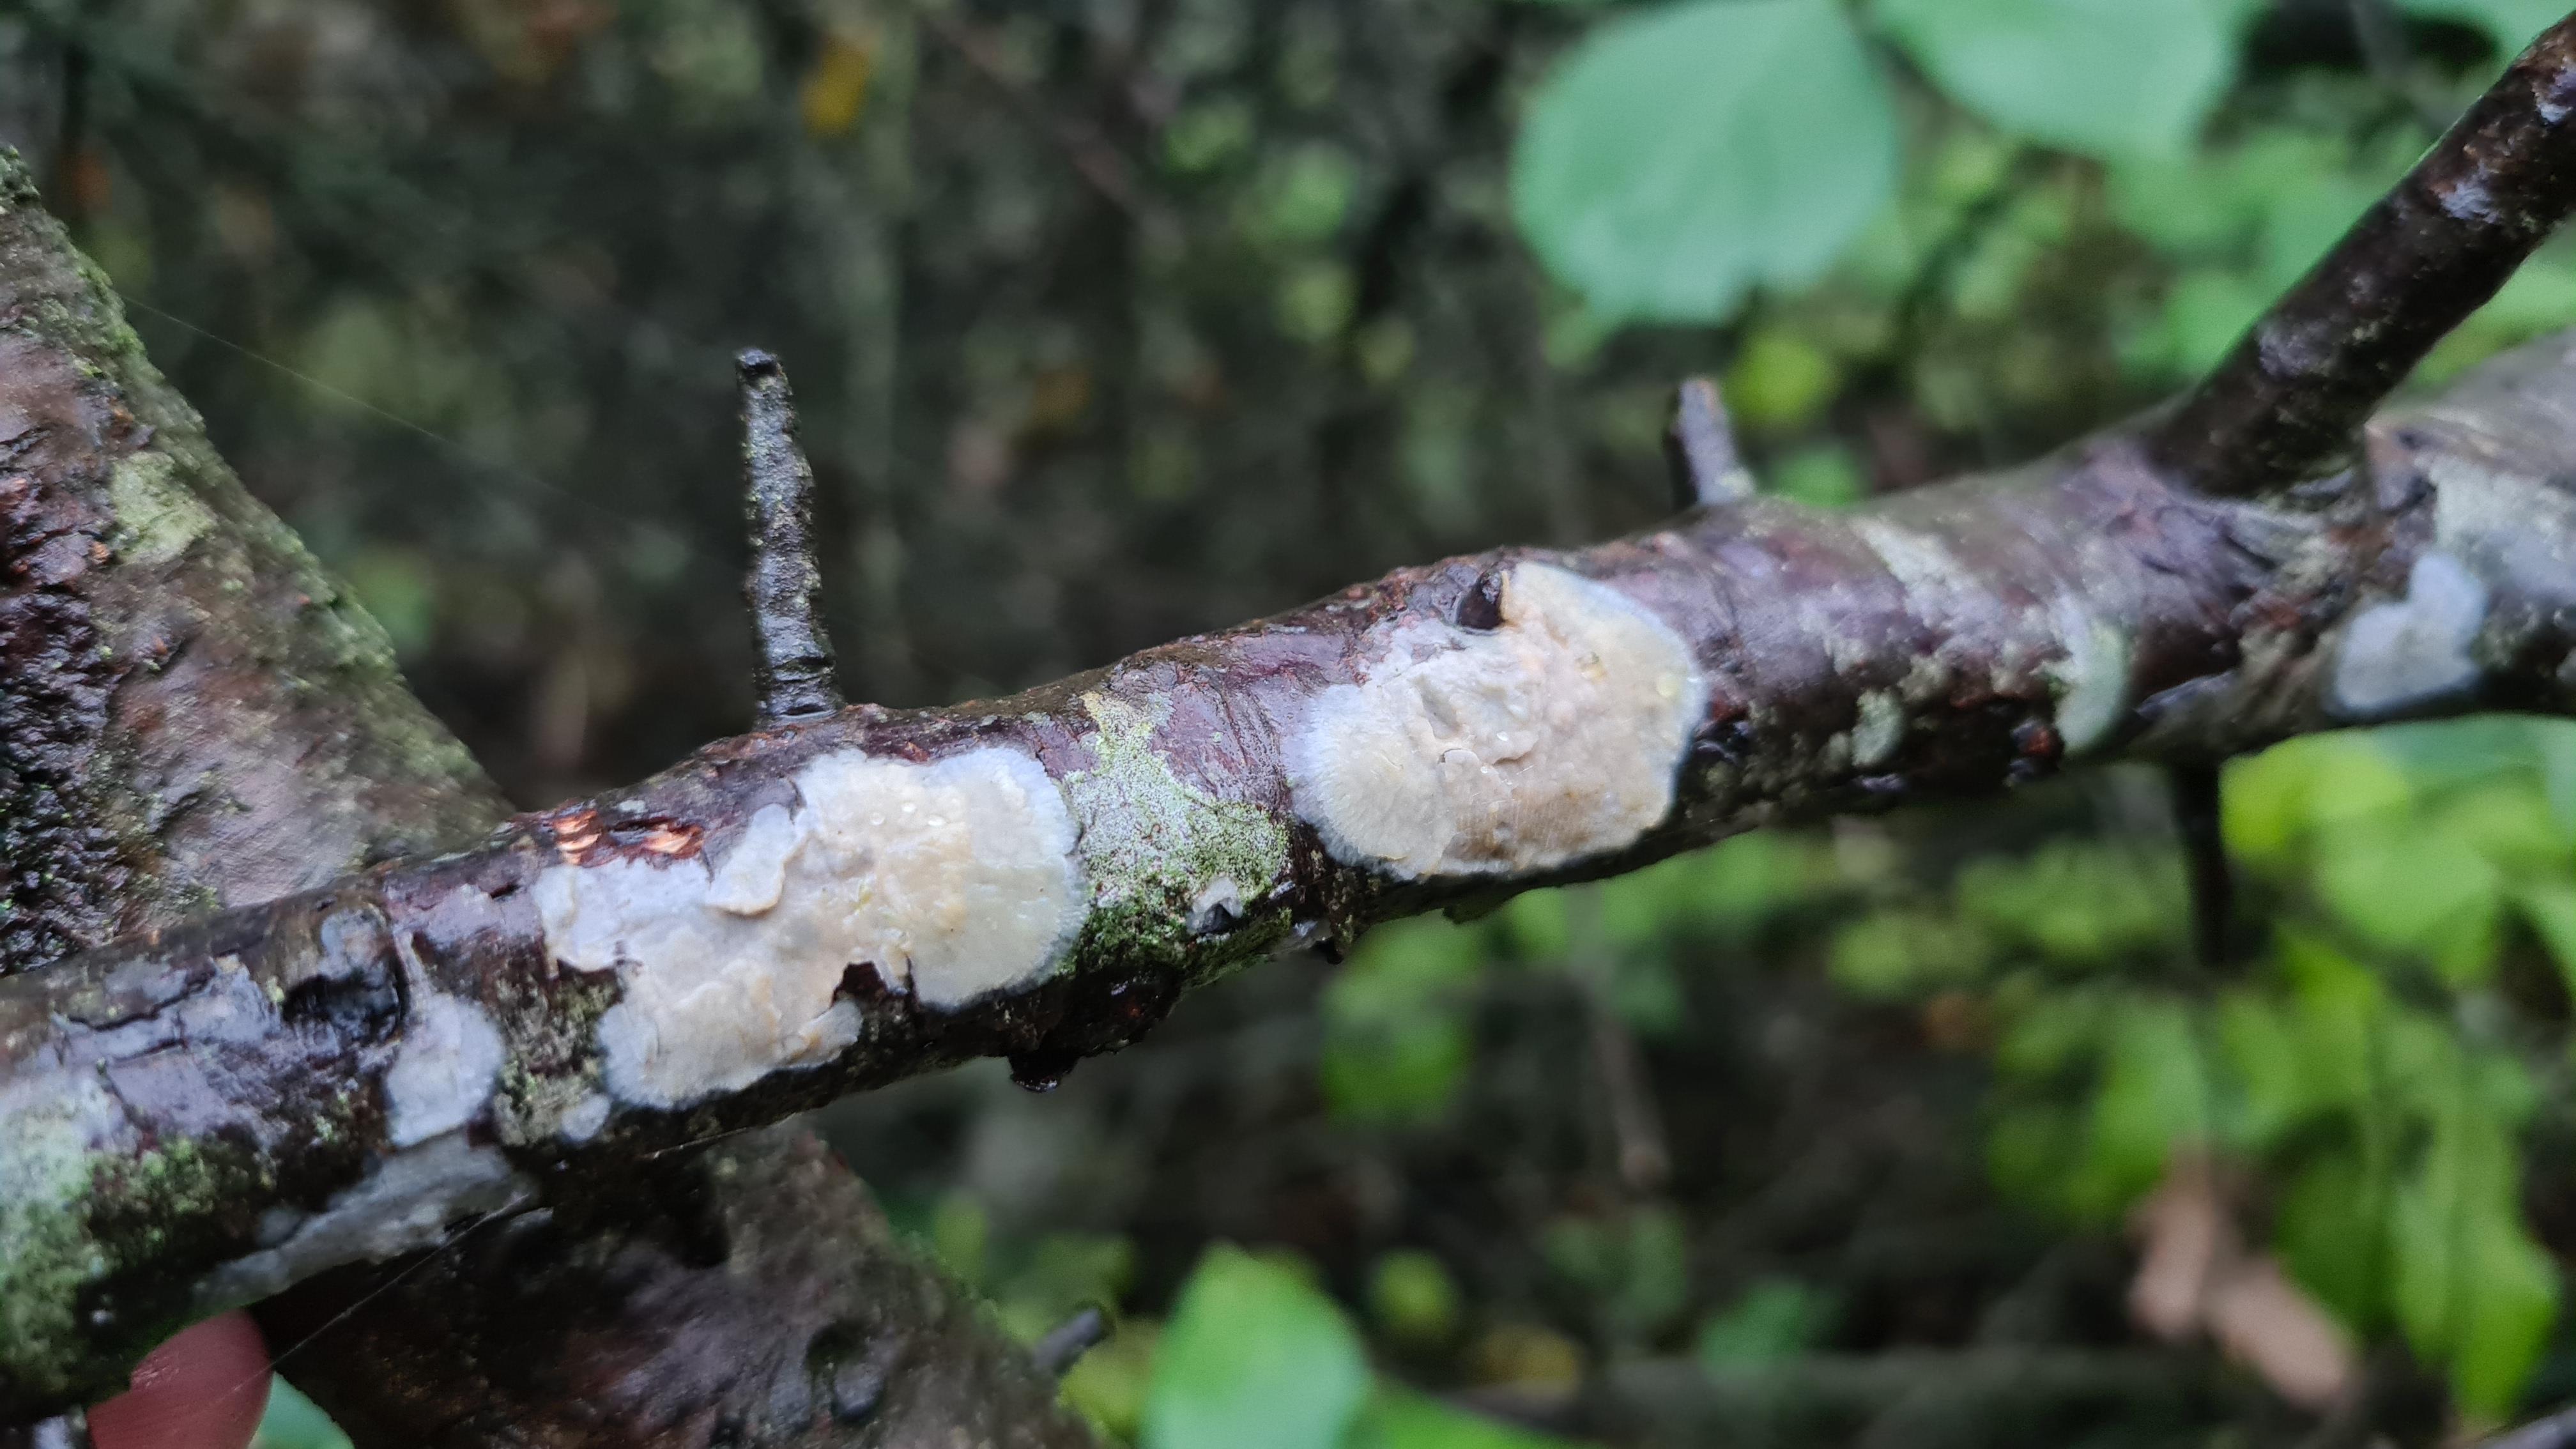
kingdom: Fungi
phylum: Basidiomycota
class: Agaricomycetes
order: Agaricales
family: Radulomycetaceae
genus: Radulomyces
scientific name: Radulomyces confluens
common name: glat naftalinskind
